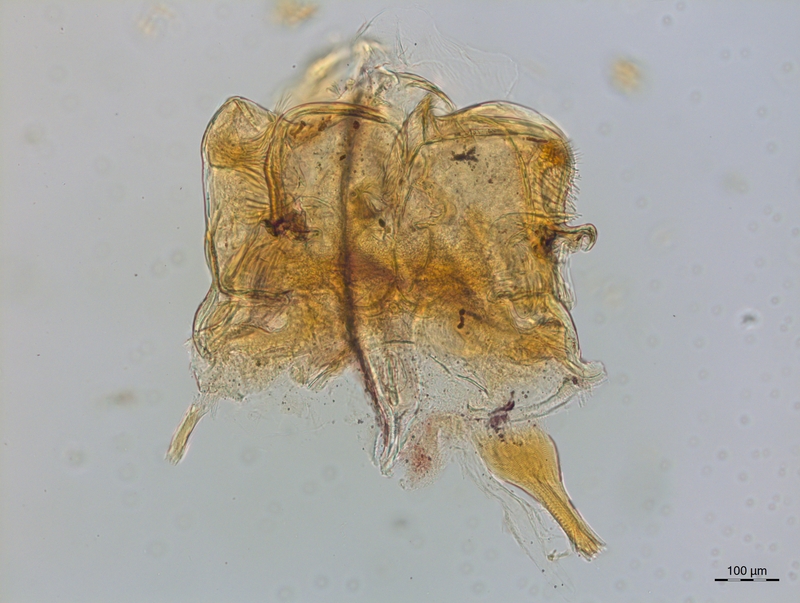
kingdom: Animalia
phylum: Arthropoda
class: Diplopoda
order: Chordeumatida
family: Craspedosomatidae
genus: Craspedosoma
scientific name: Craspedosoma taurinorum
